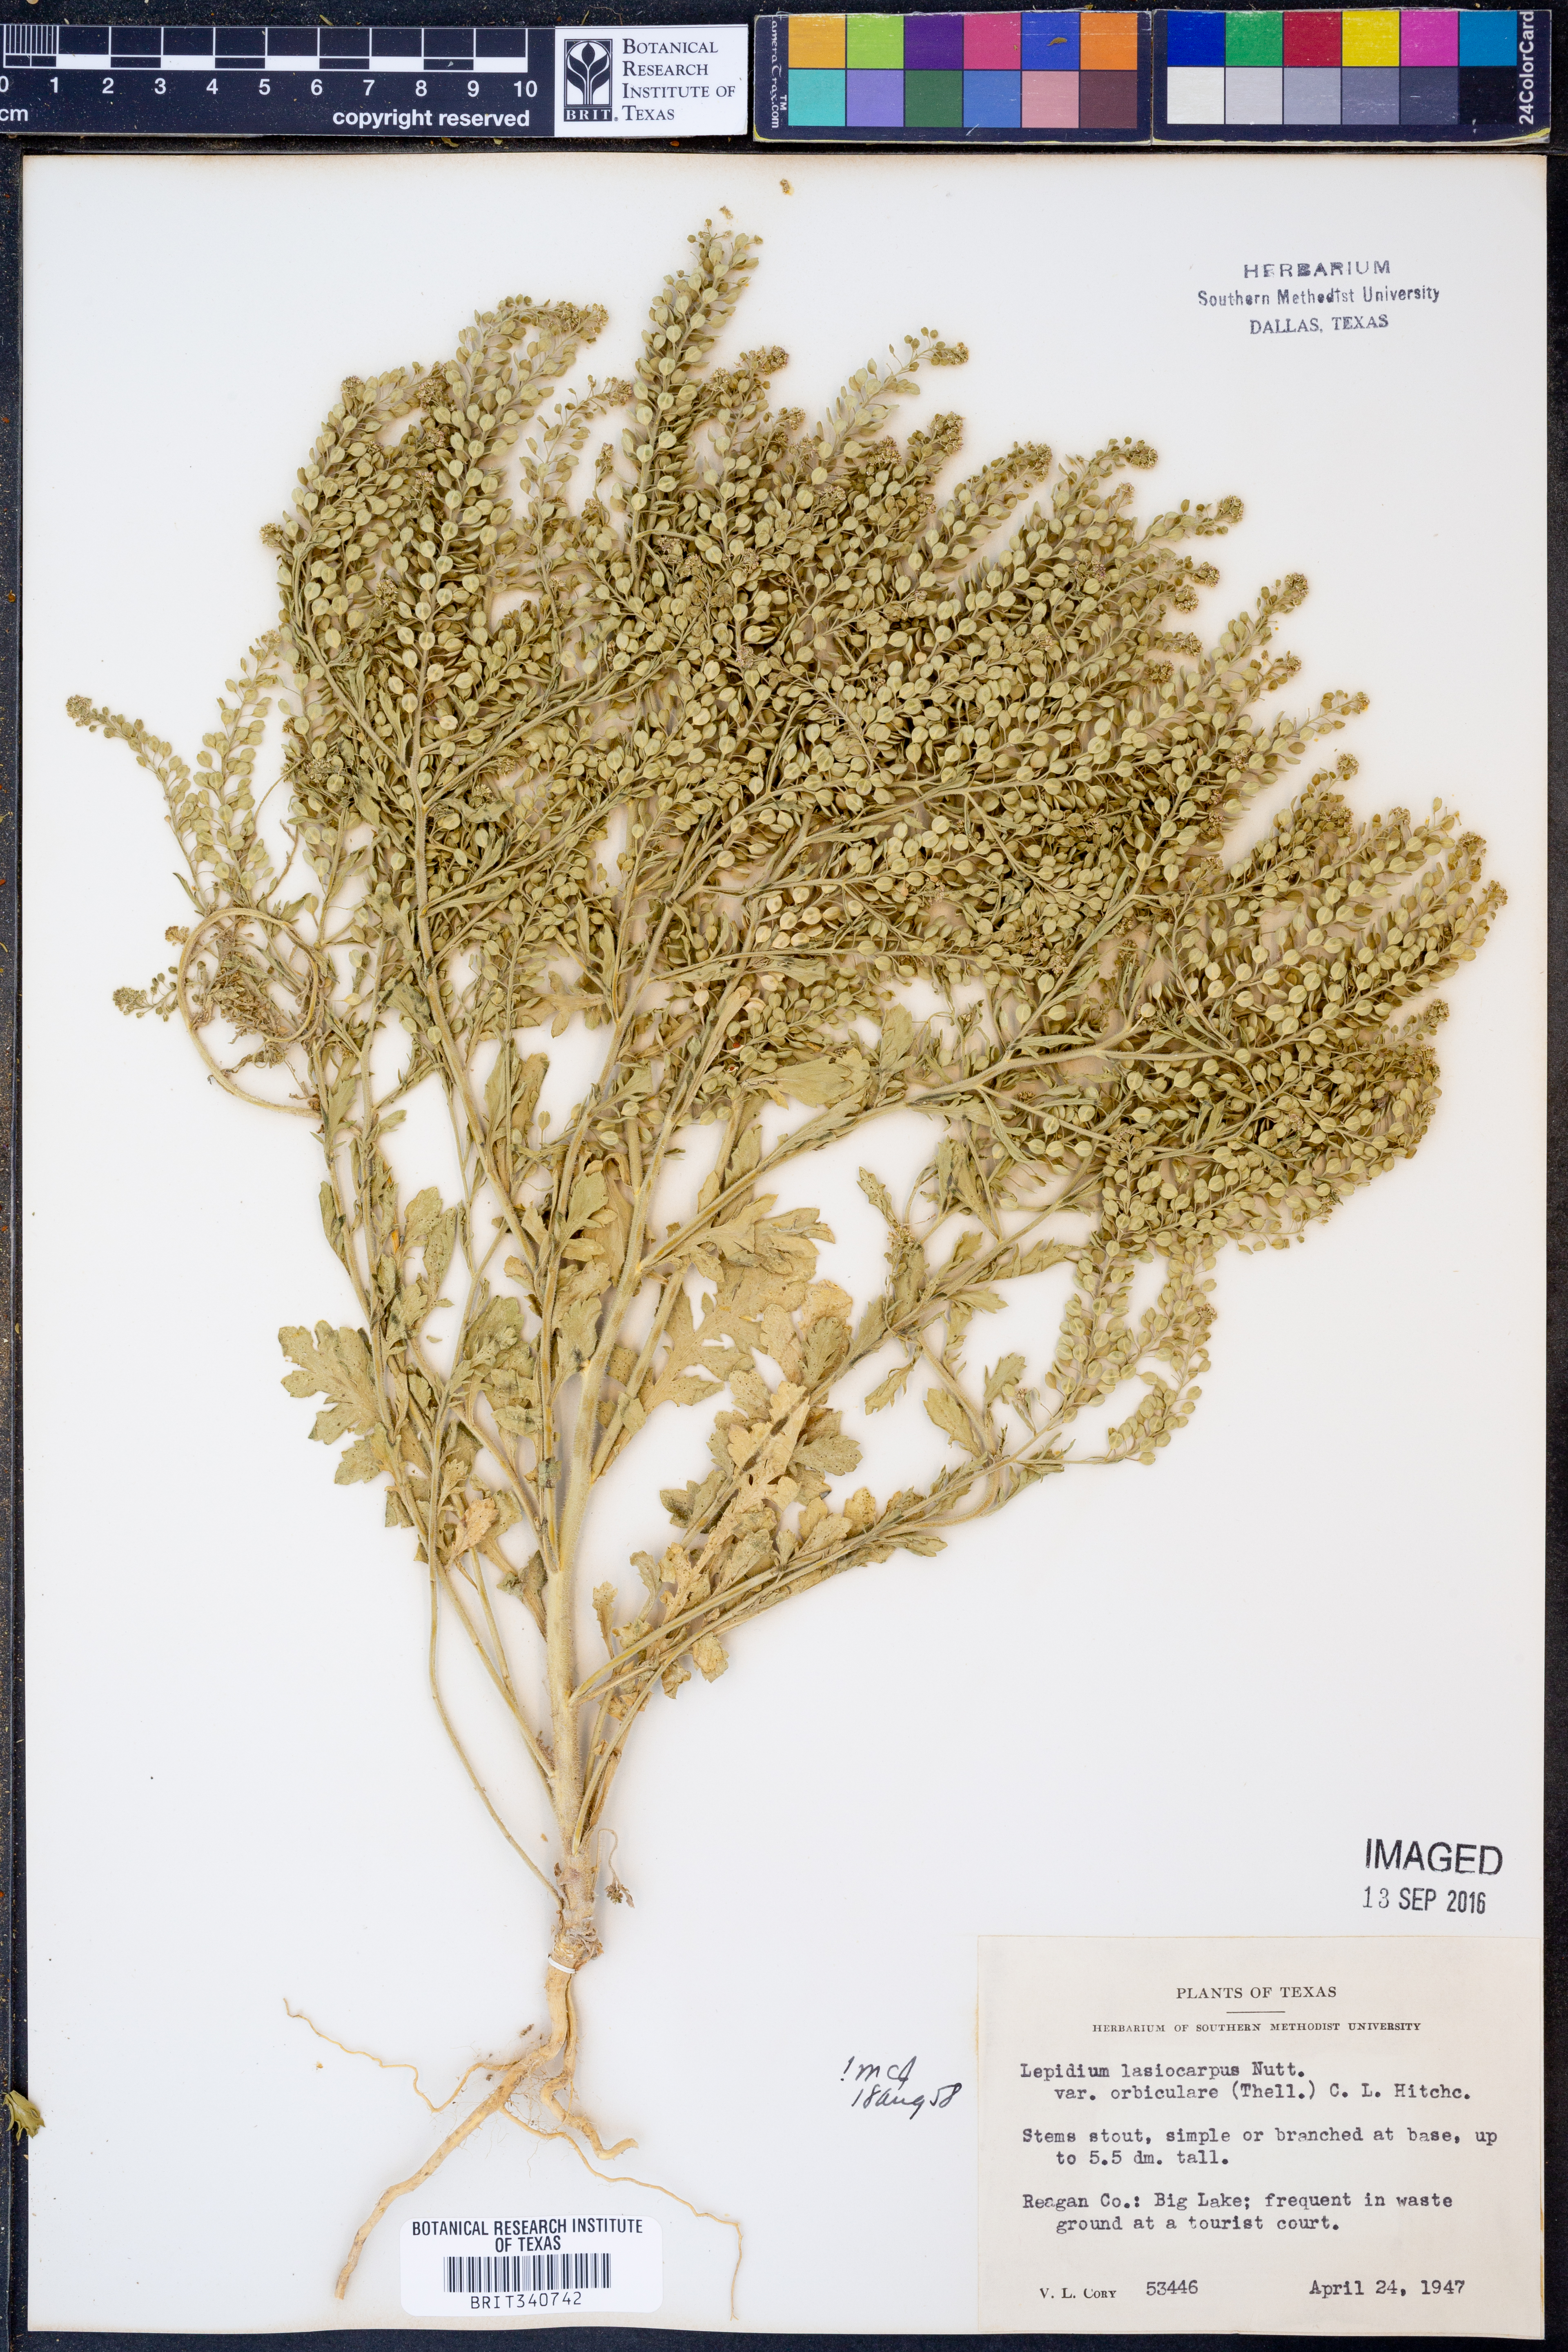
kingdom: Plantae
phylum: Tracheophyta
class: Magnoliopsida
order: Brassicales
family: Brassicaceae
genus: Lepidium
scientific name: Lepidium austrinum
